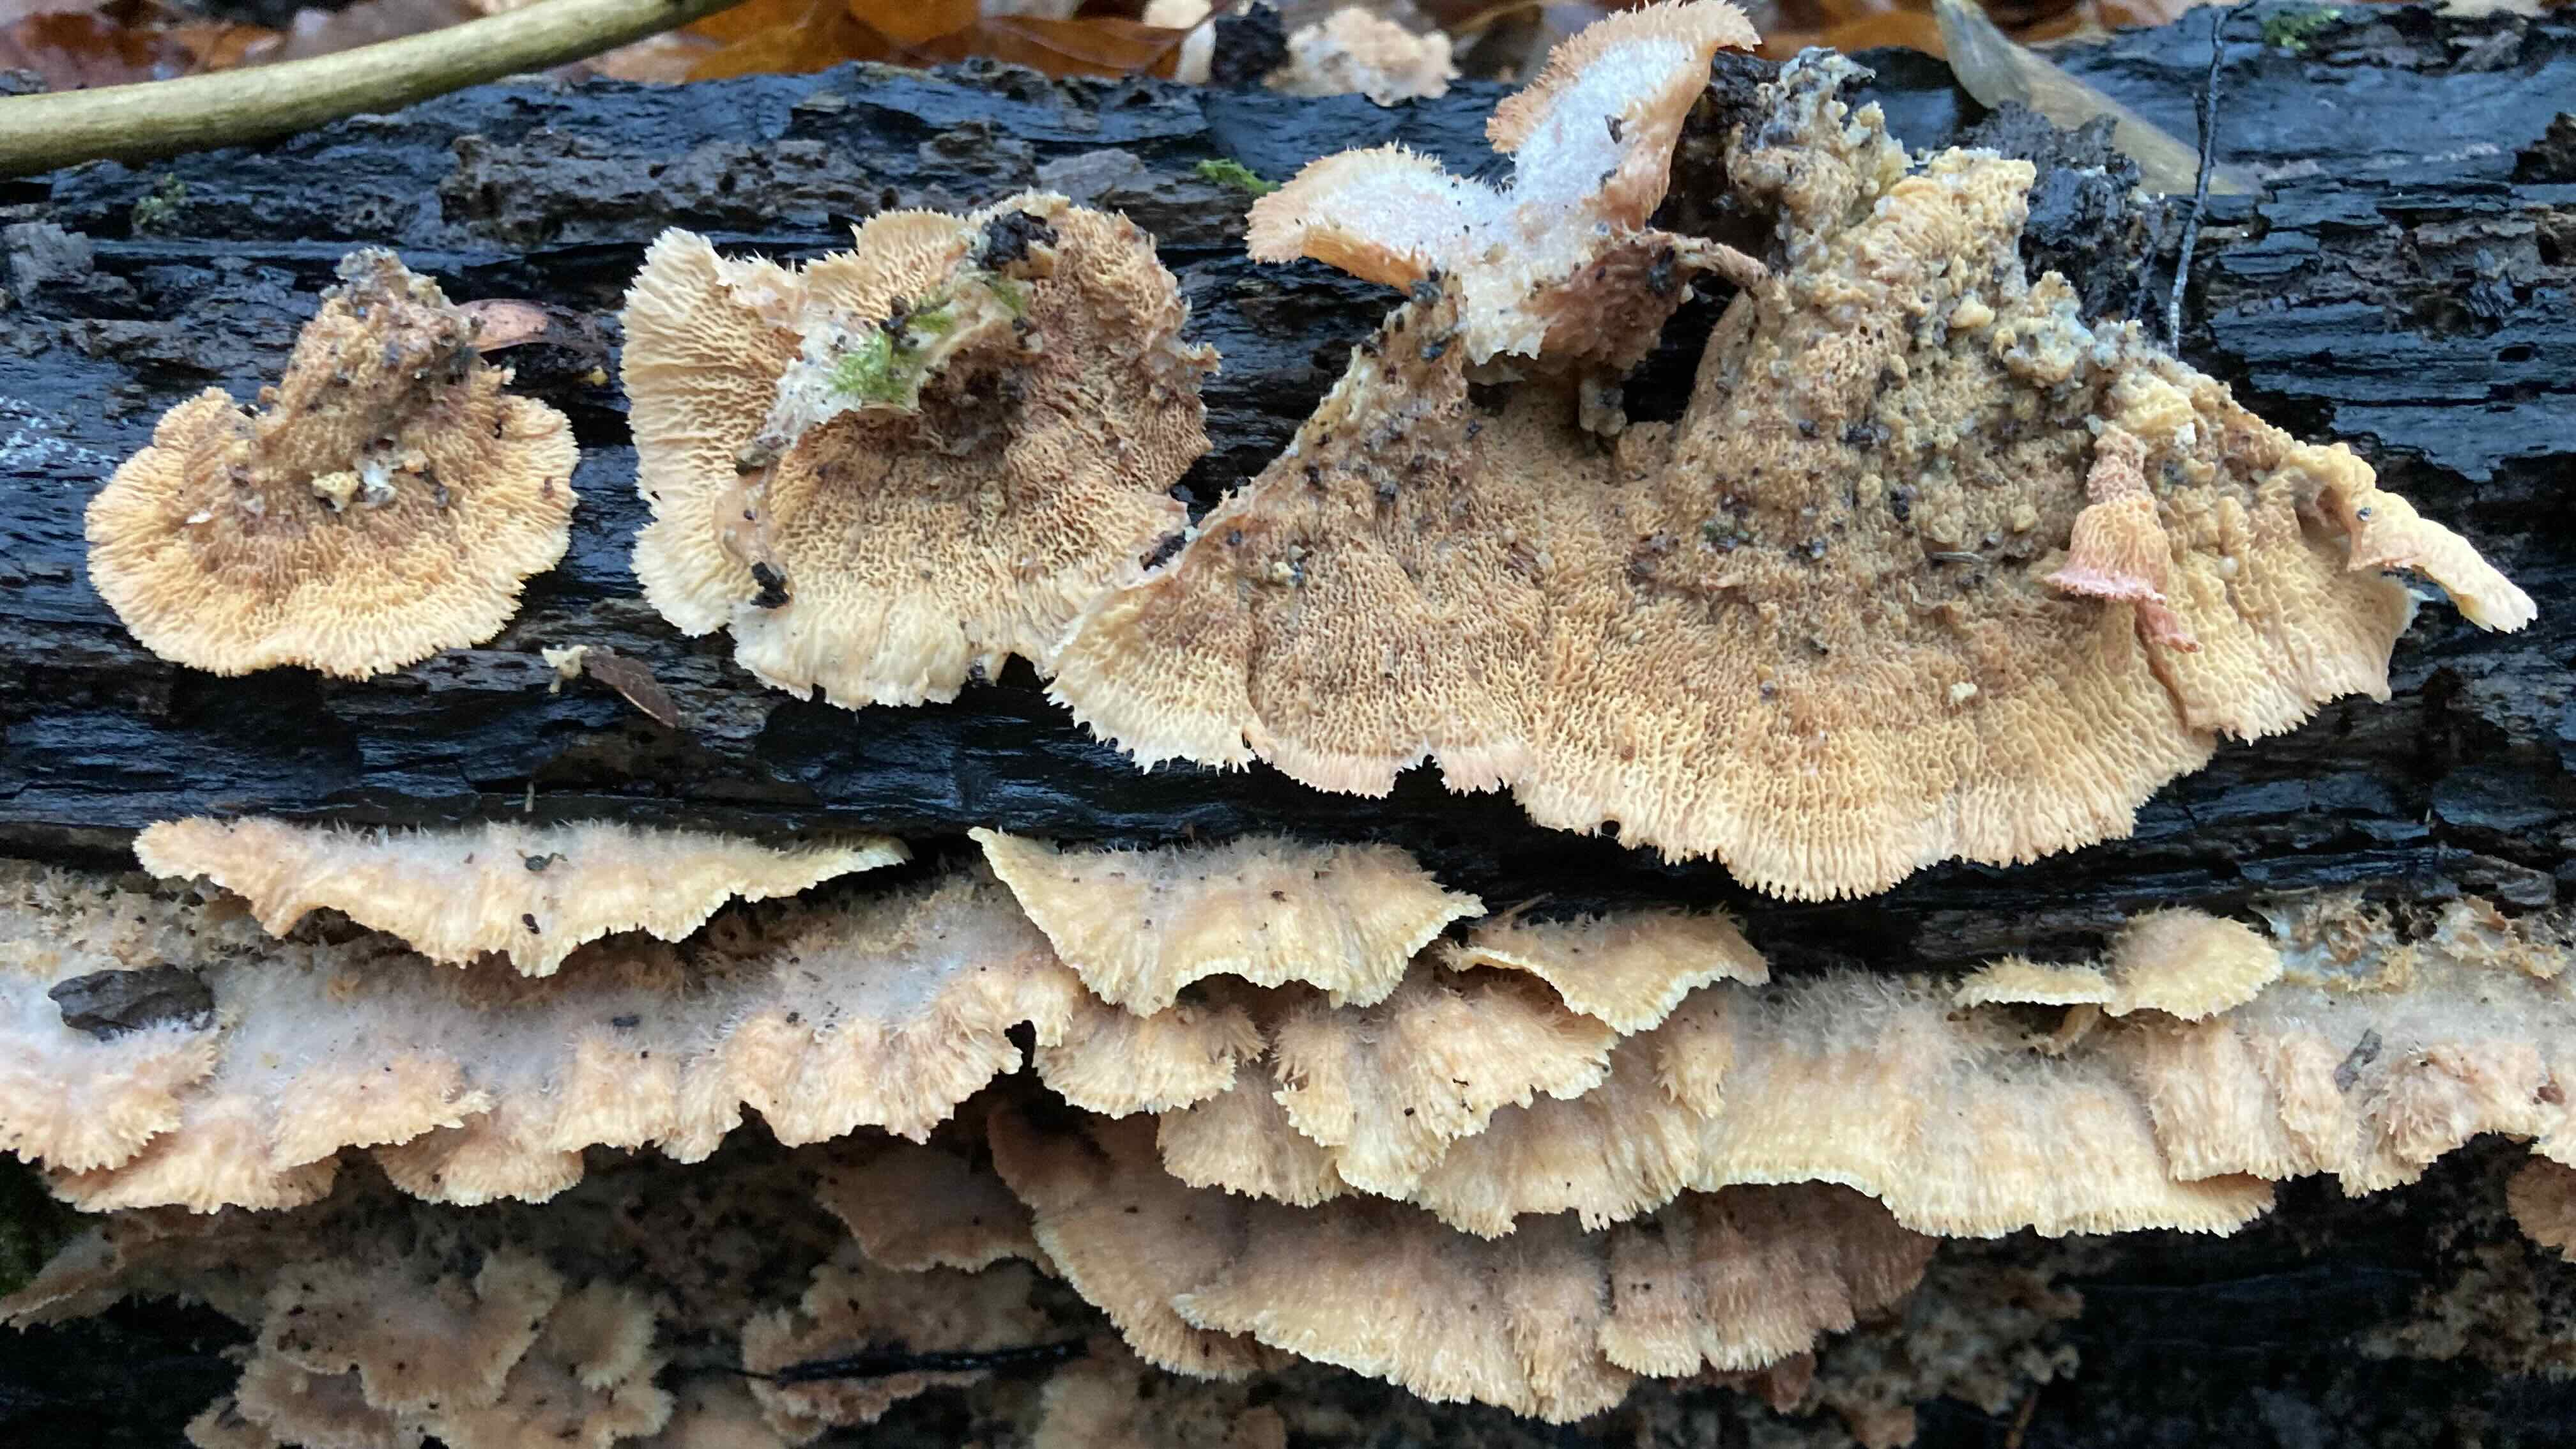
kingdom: Fungi
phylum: Basidiomycota
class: Agaricomycetes
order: Polyporales
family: Meruliaceae
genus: Phlebia
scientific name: Phlebia tremellosa
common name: bævrende åresvamp
